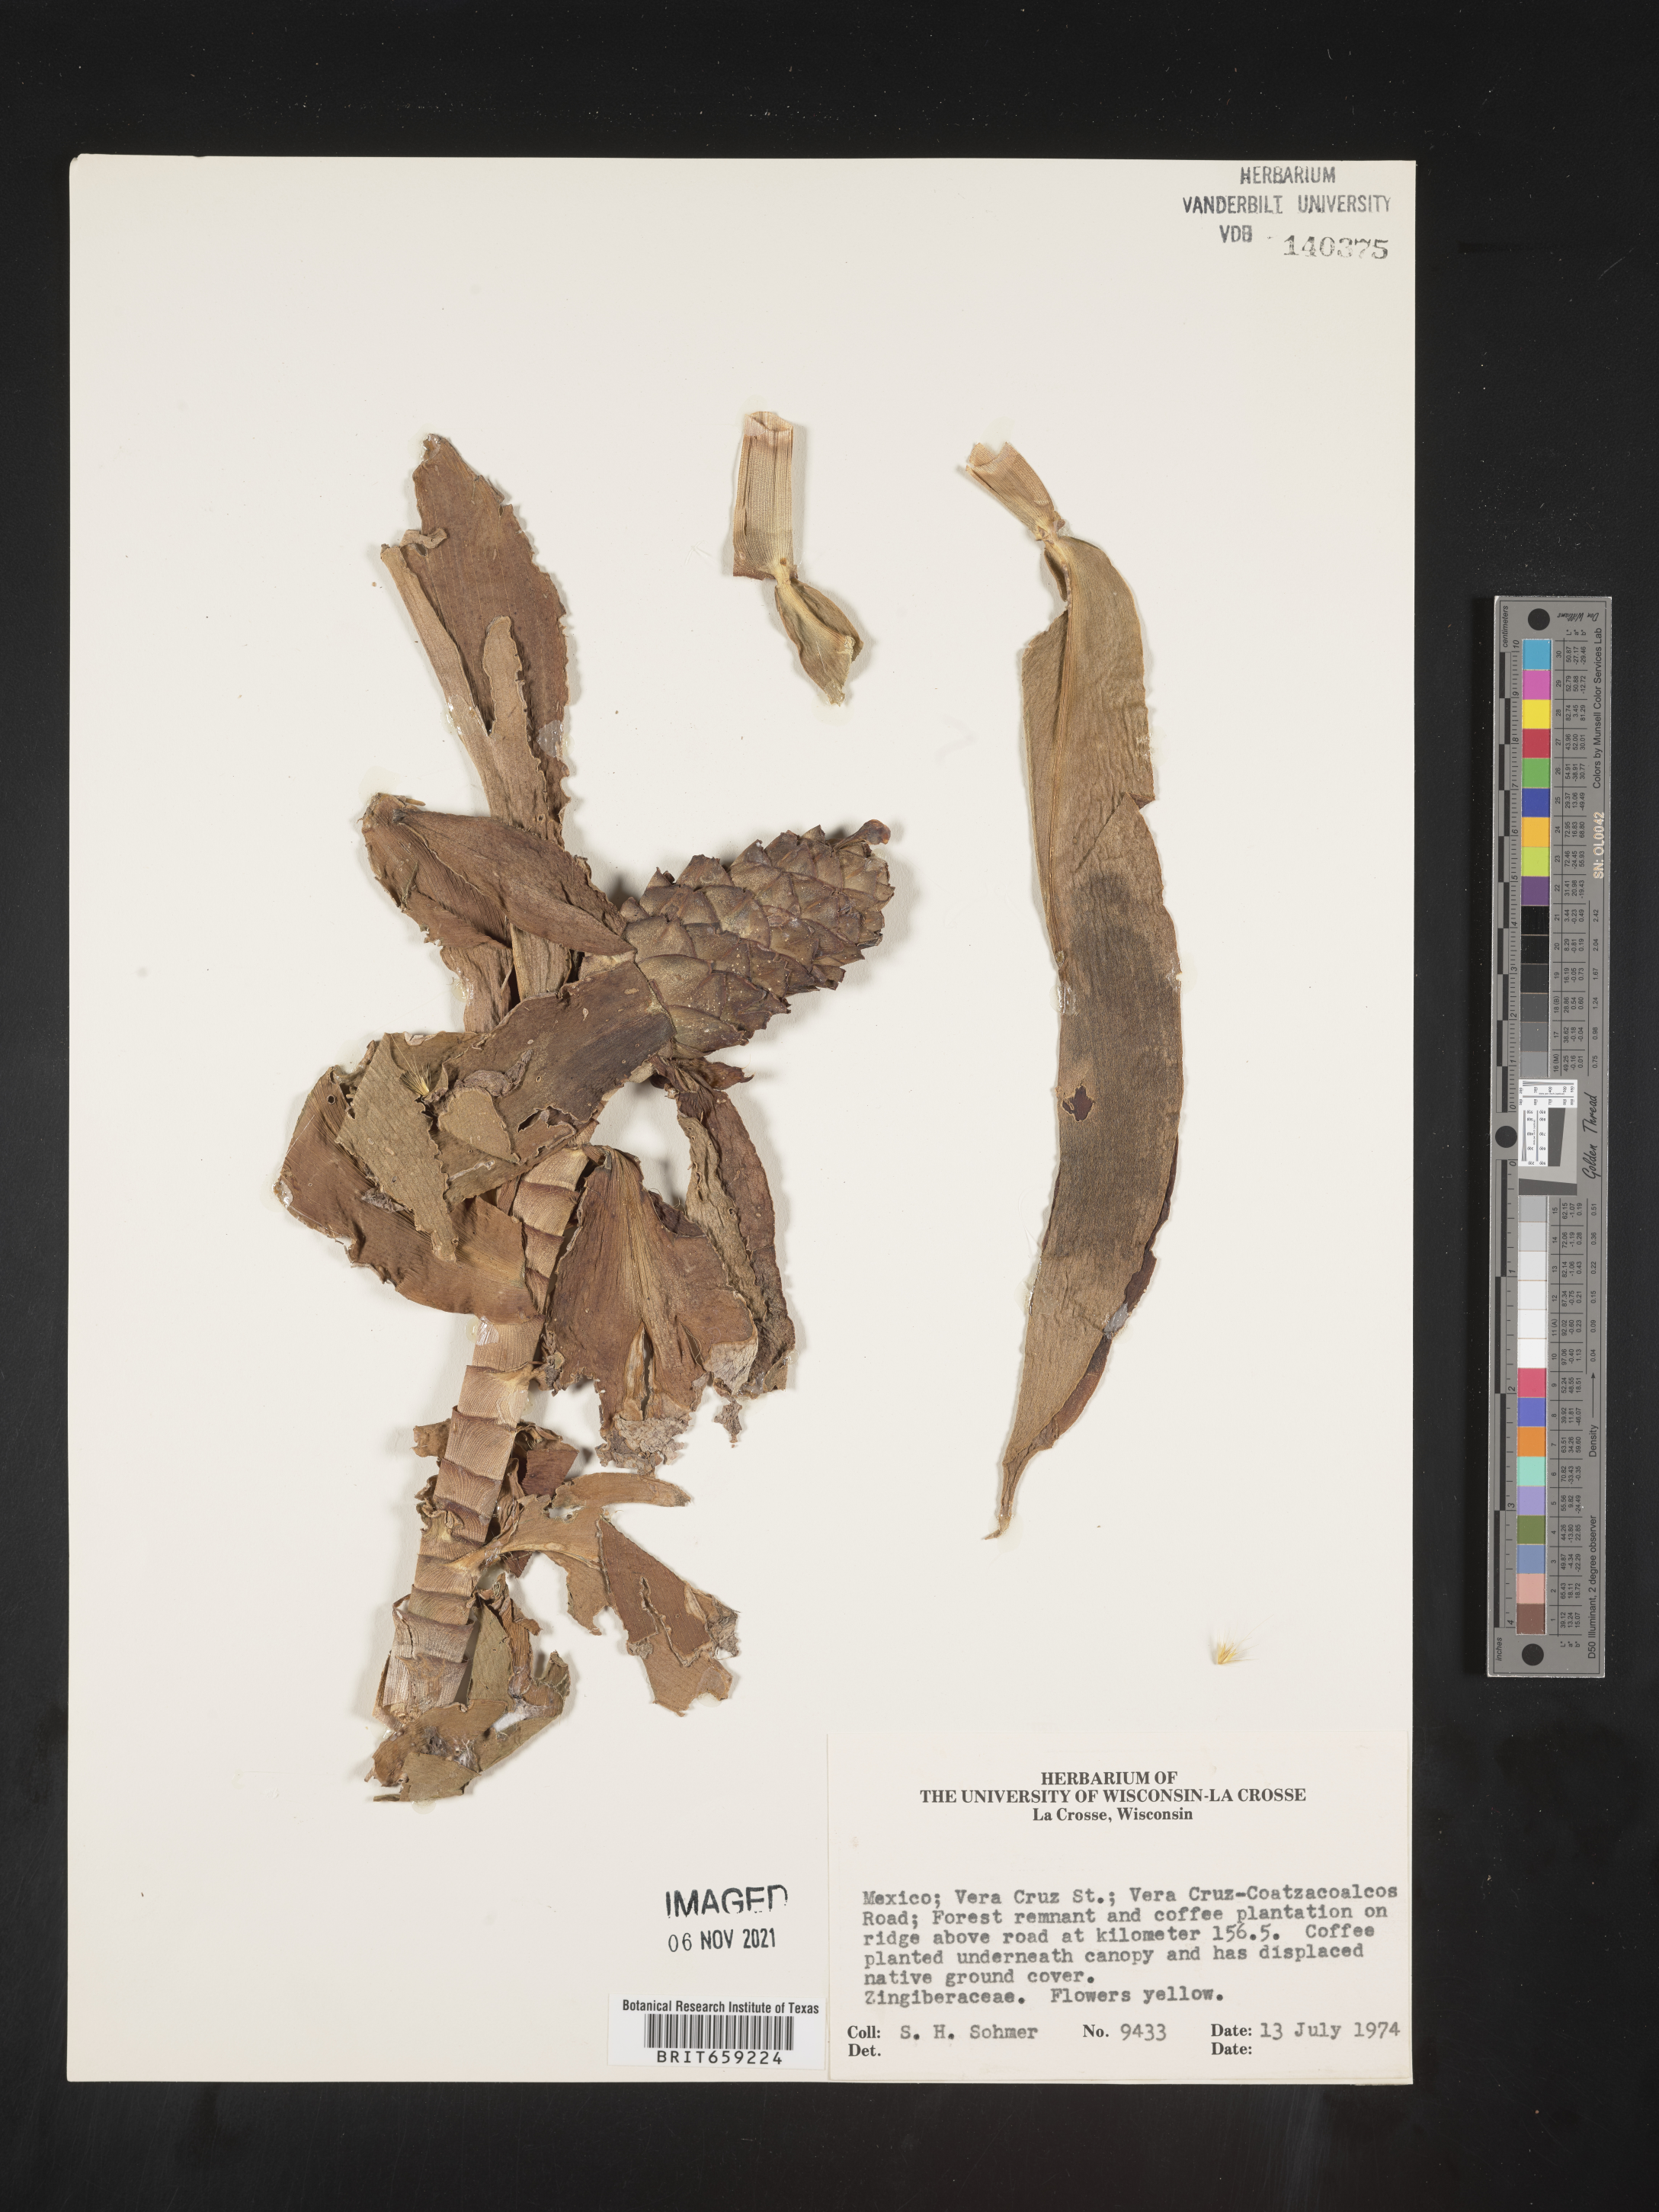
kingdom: Plantae
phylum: Tracheophyta
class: Liliopsida
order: Zingiberales
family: Costaceae
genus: Costus
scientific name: Costus
